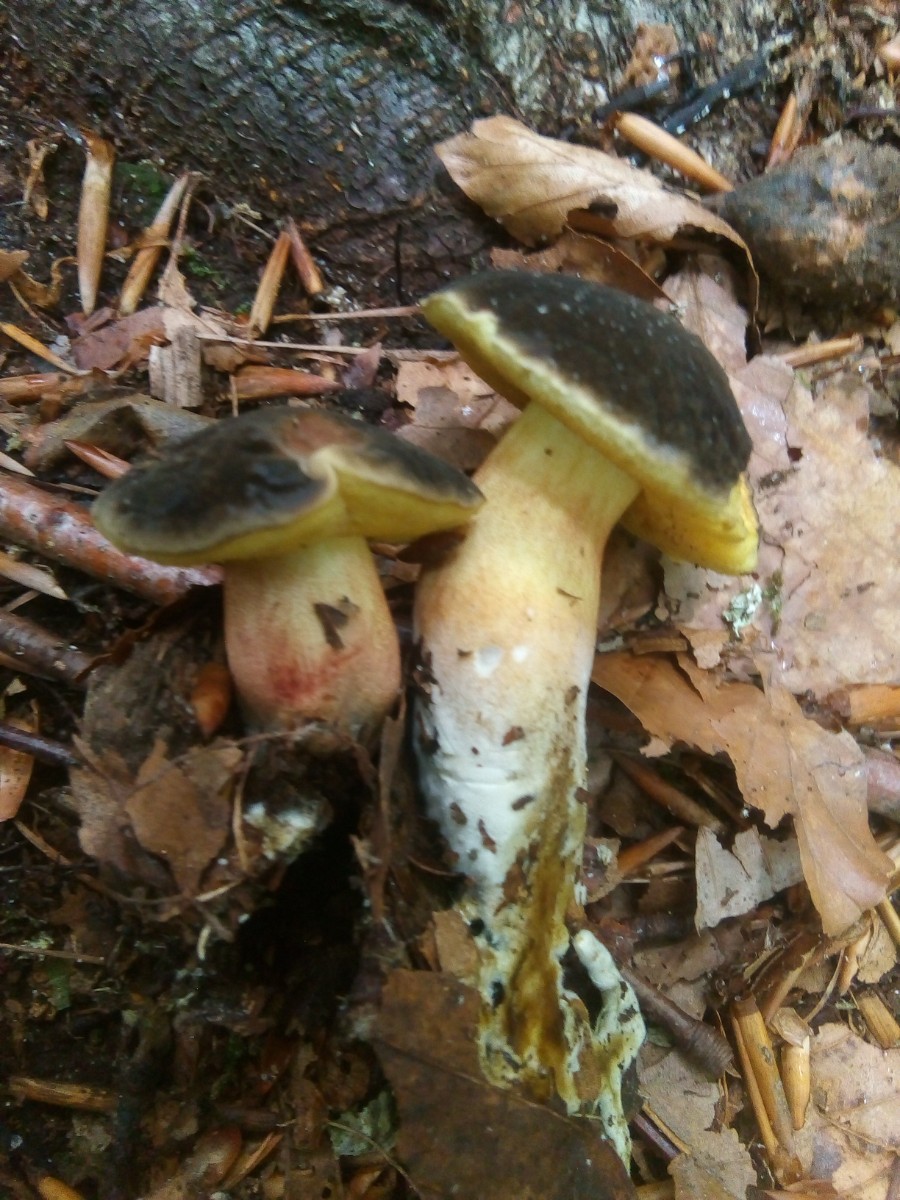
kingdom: Fungi
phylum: Basidiomycota
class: Agaricomycetes
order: Boletales
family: Boletaceae
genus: Xerocomellus
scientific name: Xerocomellus
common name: dværgrørhat
